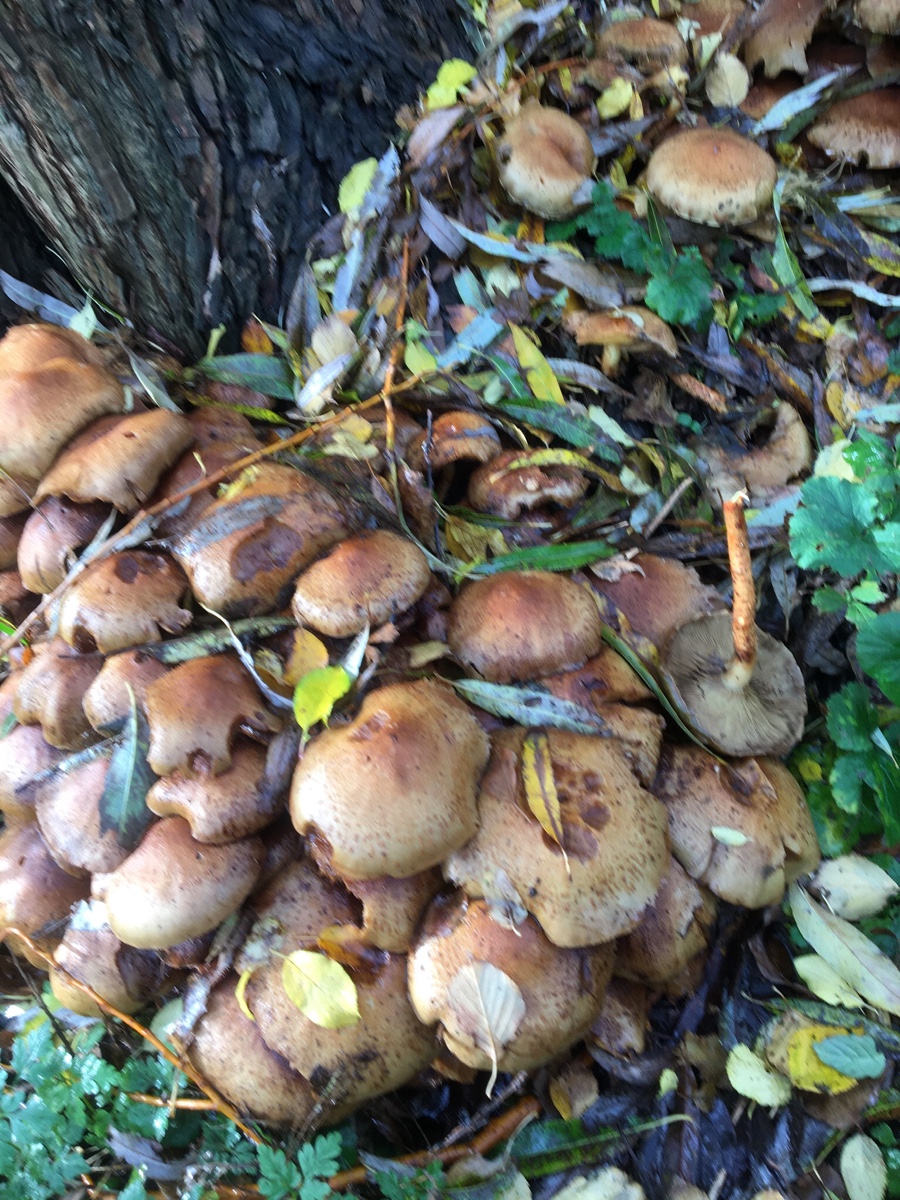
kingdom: Fungi
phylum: Basidiomycota
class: Agaricomycetes
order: Agaricales
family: Strophariaceae
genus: Pholiota
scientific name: Pholiota squarrosa
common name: krumskællet skælhat
